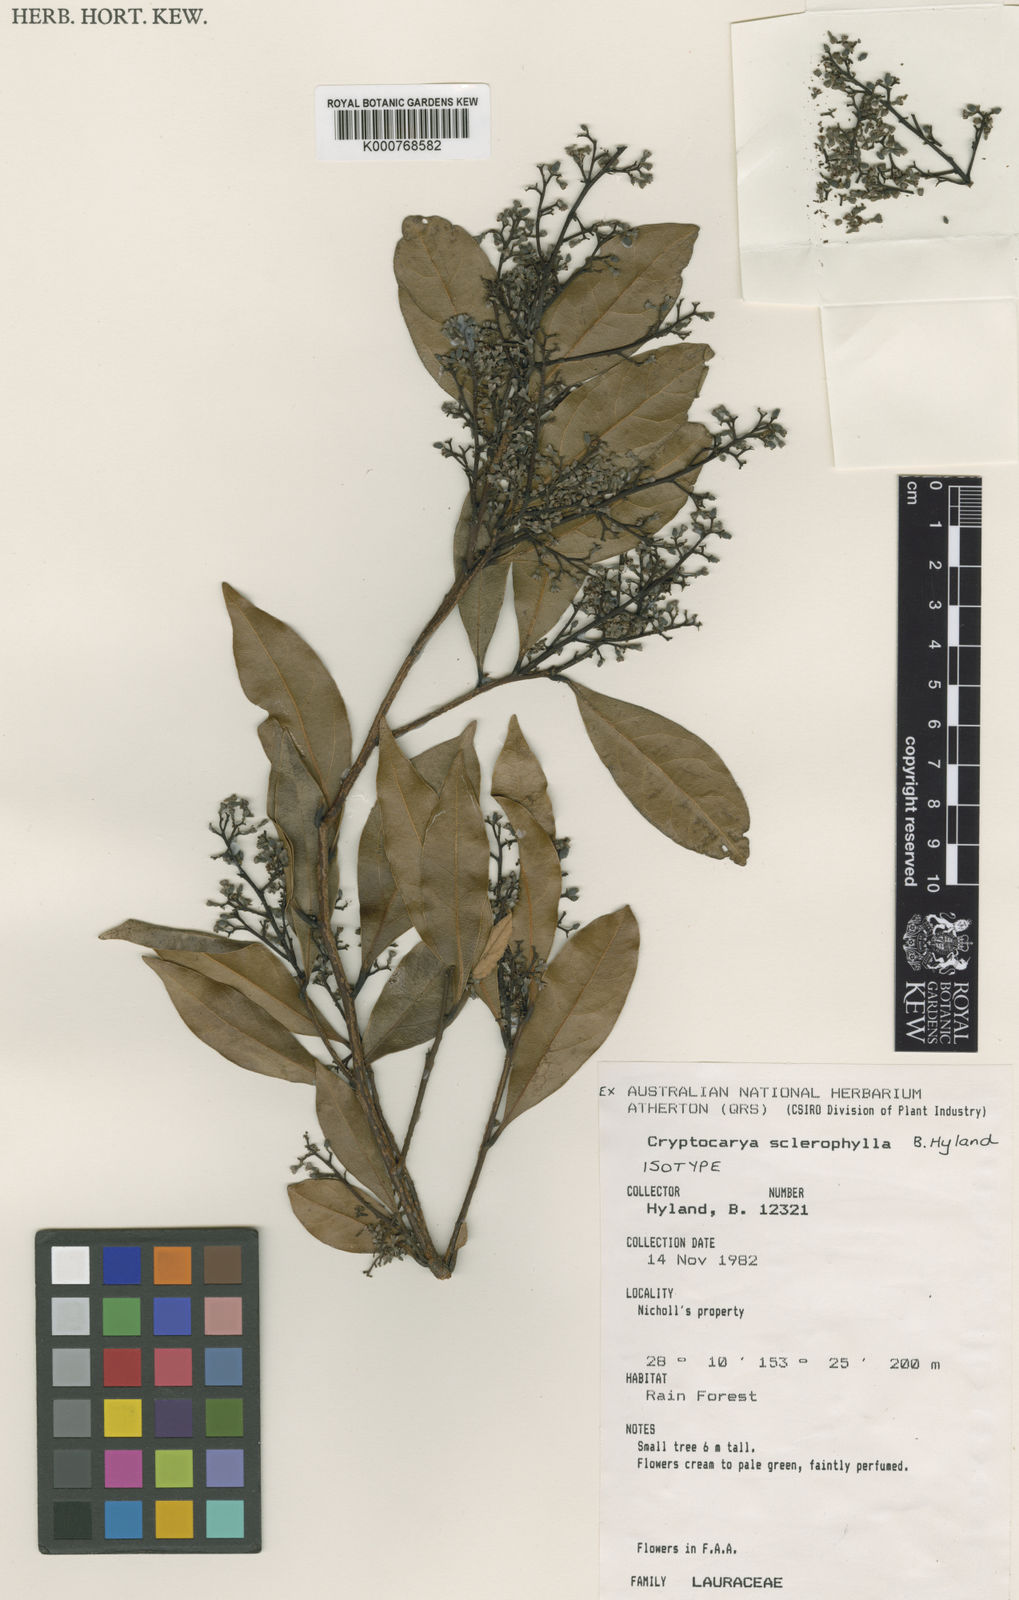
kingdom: Plantae
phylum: Tracheophyta
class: Magnoliopsida
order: Laurales
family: Lauraceae
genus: Cryptocarya
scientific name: Cryptocarya sclerophylla
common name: Totempole
